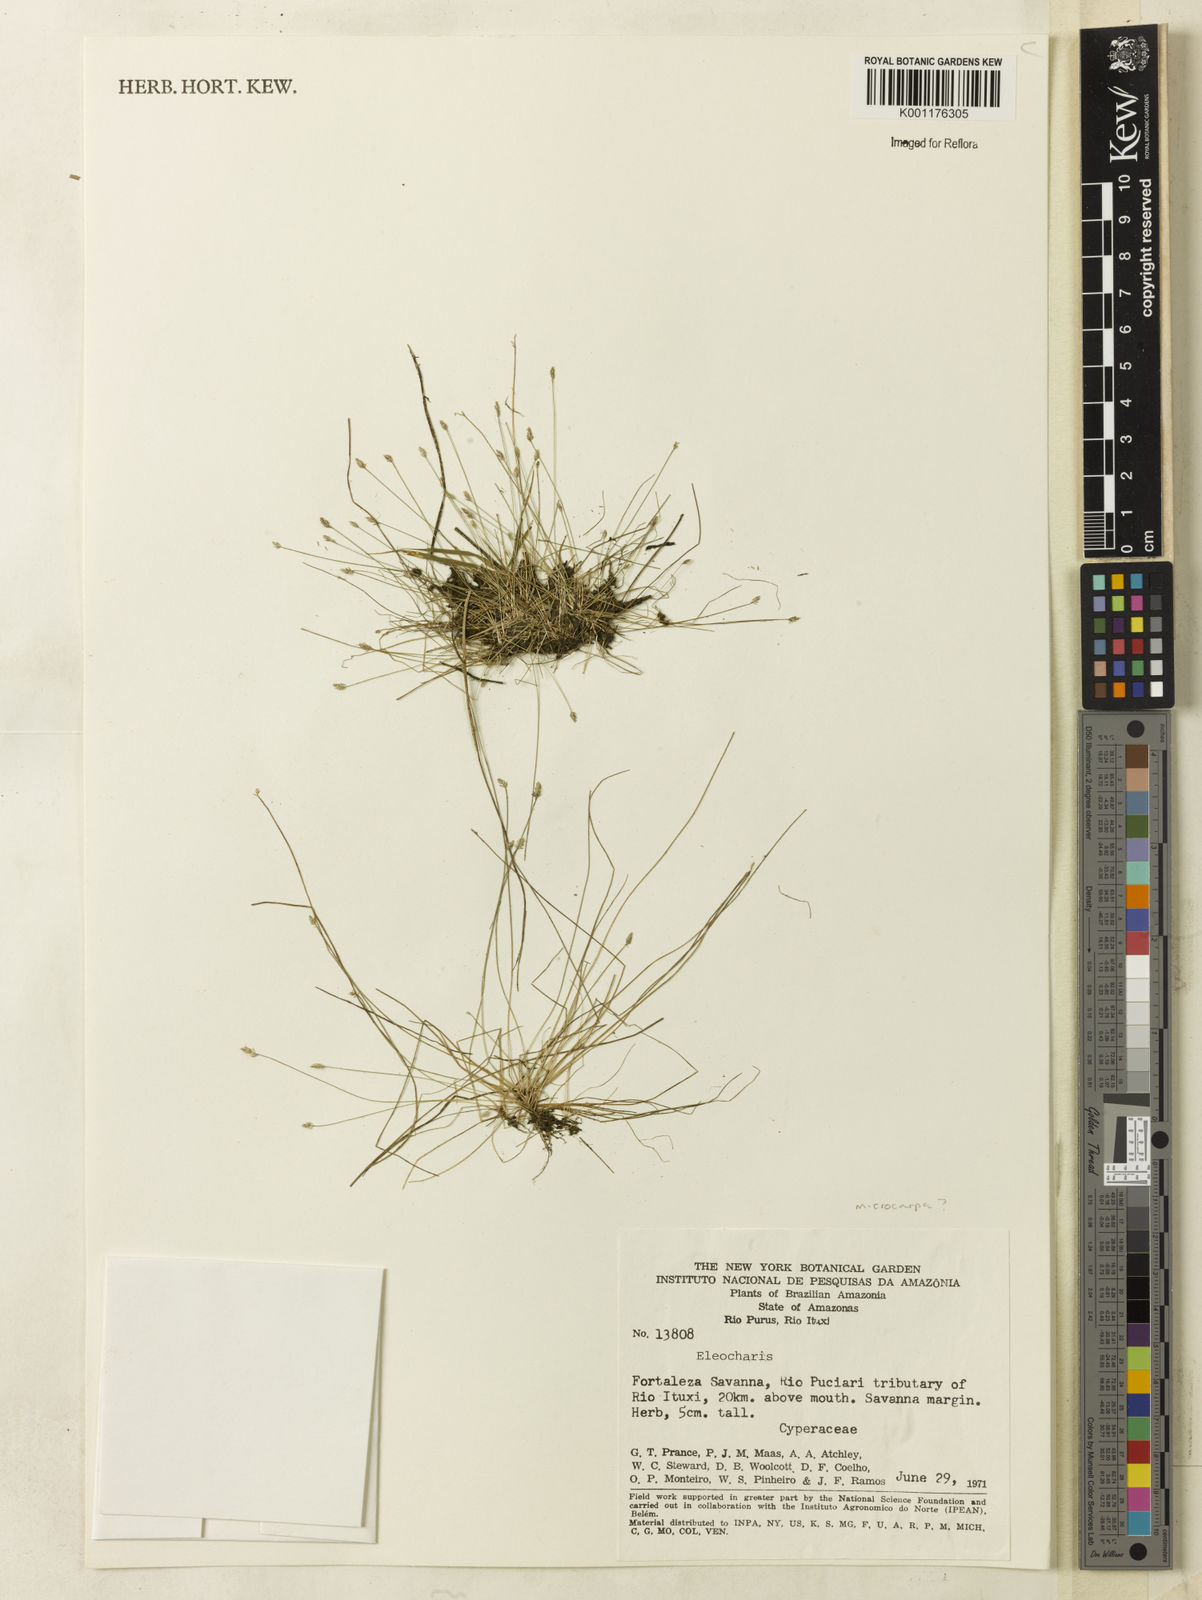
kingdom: Plantae
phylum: Tracheophyta
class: Liliopsida
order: Poales
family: Cyperaceae
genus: Eleocharis
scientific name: Eleocharis
